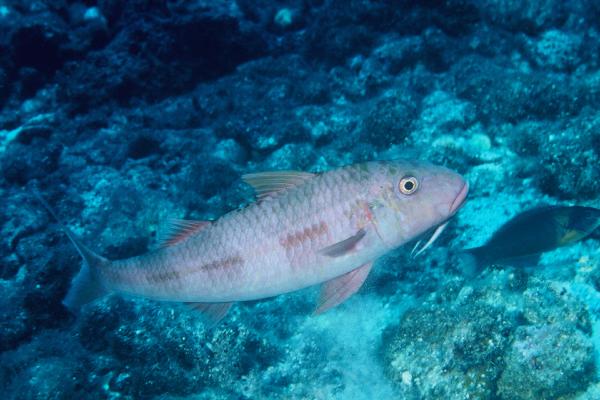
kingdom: Animalia
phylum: Chordata
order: Perciformes
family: Mullidae
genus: Mulloidichthys
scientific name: Mulloidichthys pfluegeri
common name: Orange goatfish
